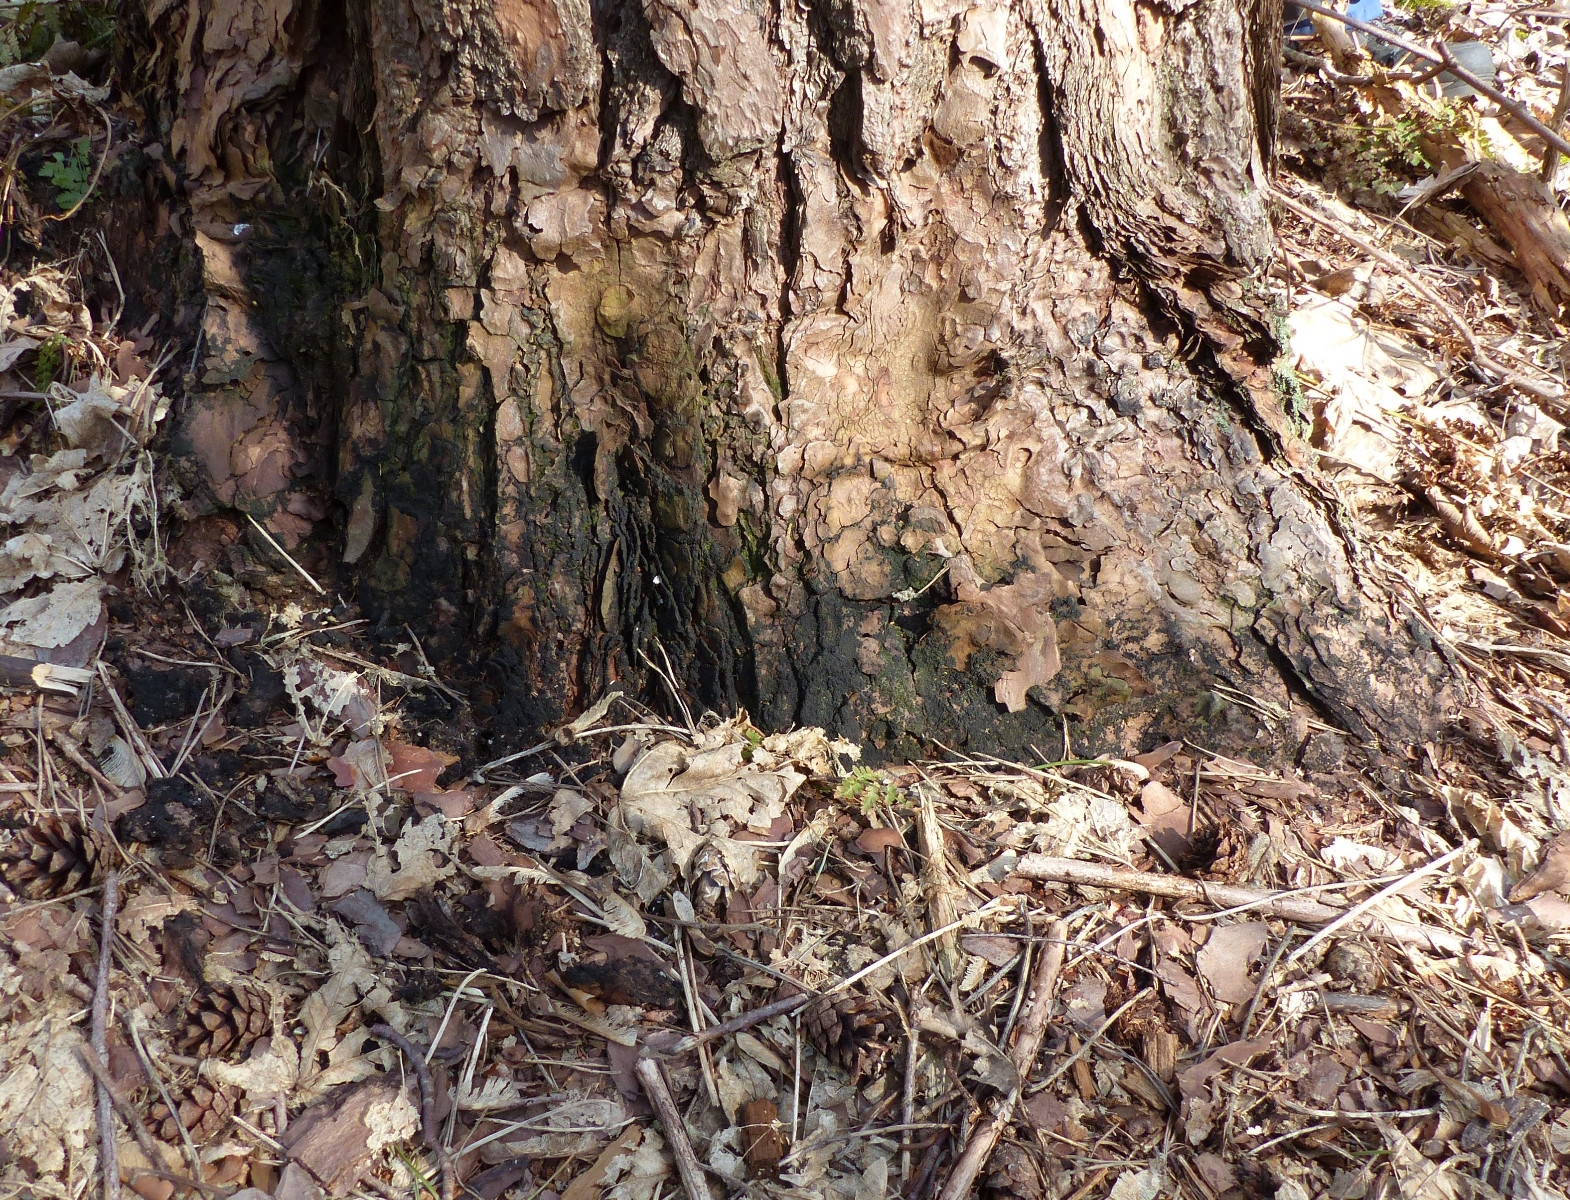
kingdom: Fungi
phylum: Ascomycota
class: Dothideomycetes
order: Mytilinidiales
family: Gloniaceae
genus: Glonium
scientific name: Glonium graphicum
